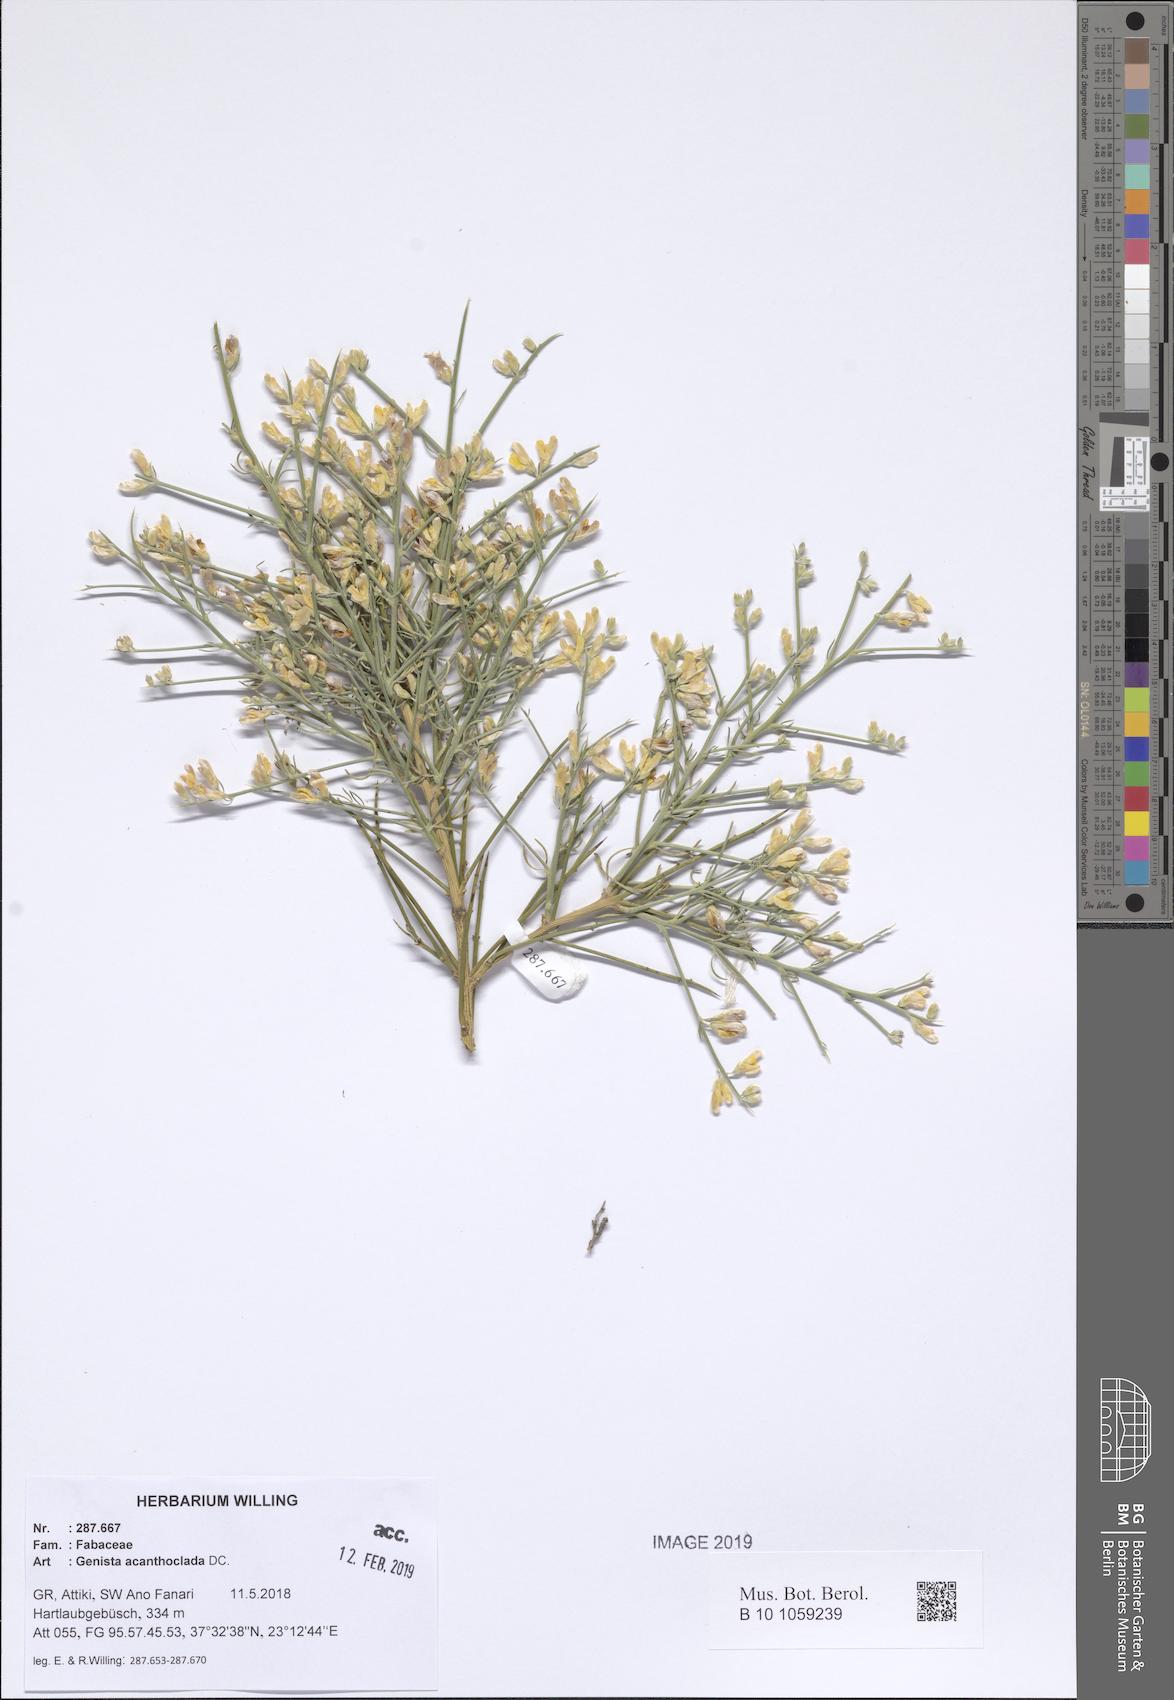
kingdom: Plantae
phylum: Tracheophyta
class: Magnoliopsida
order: Fabales
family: Fabaceae
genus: Genista
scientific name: Genista acanthoclada
